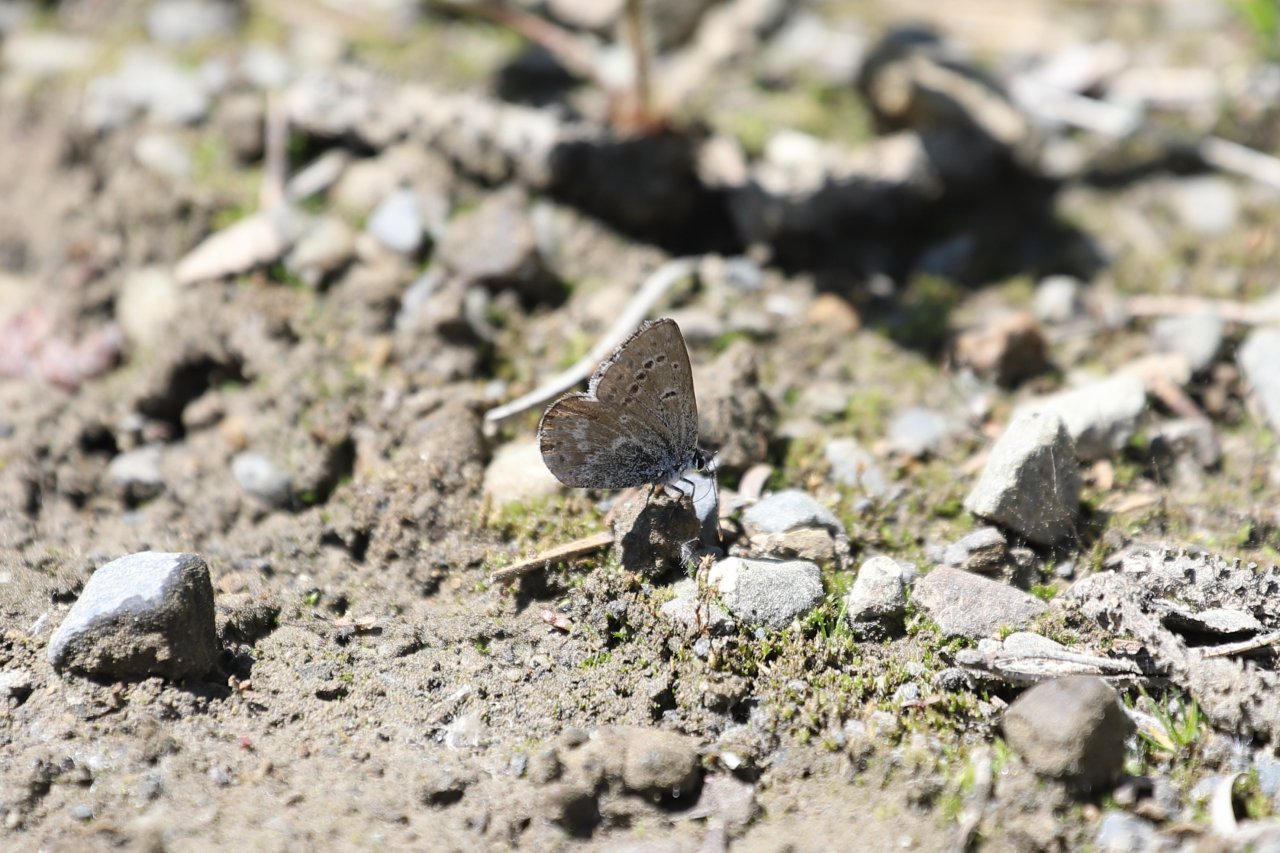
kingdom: Animalia
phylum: Arthropoda
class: Insecta
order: Lepidoptera
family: Lycaenidae
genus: Icaricia
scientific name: Icaricia icarioides
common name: Boisduval's Blue
